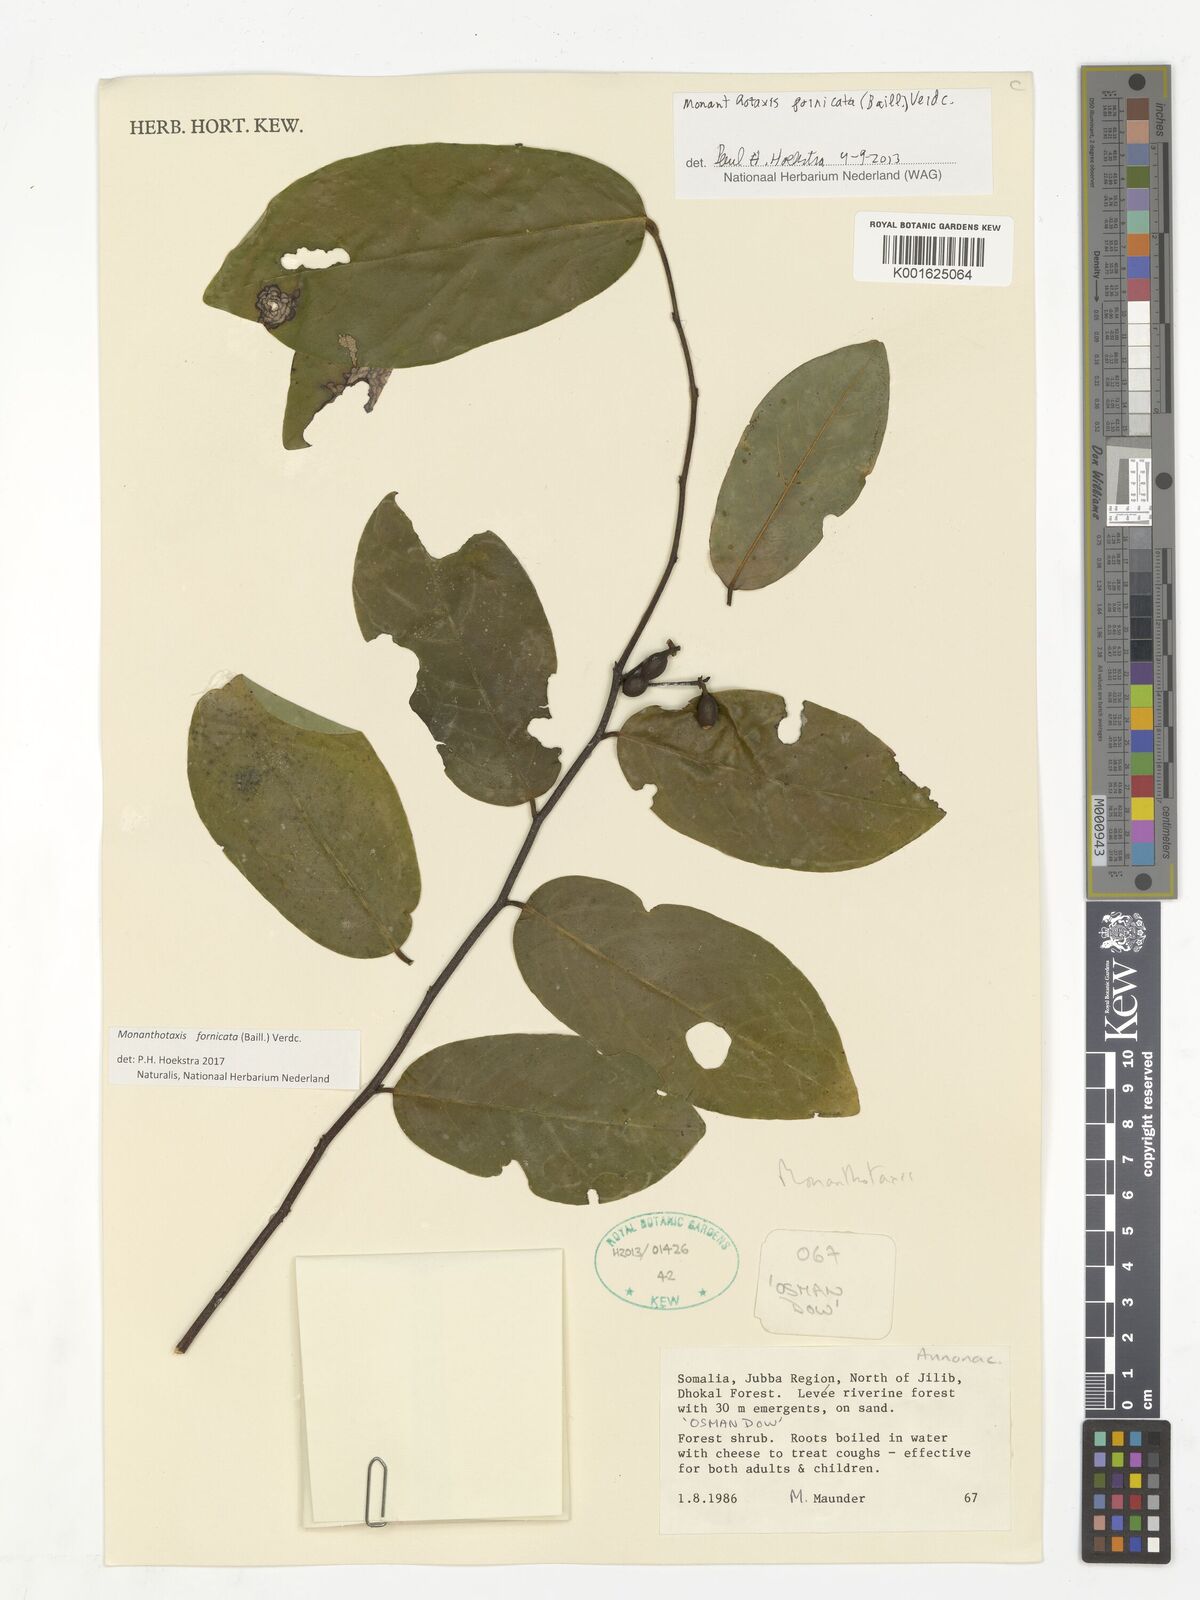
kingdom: Plantae
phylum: Tracheophyta
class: Magnoliopsida
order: Magnoliales
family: Annonaceae
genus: Monanthotaxis
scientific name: Monanthotaxis fornicata
